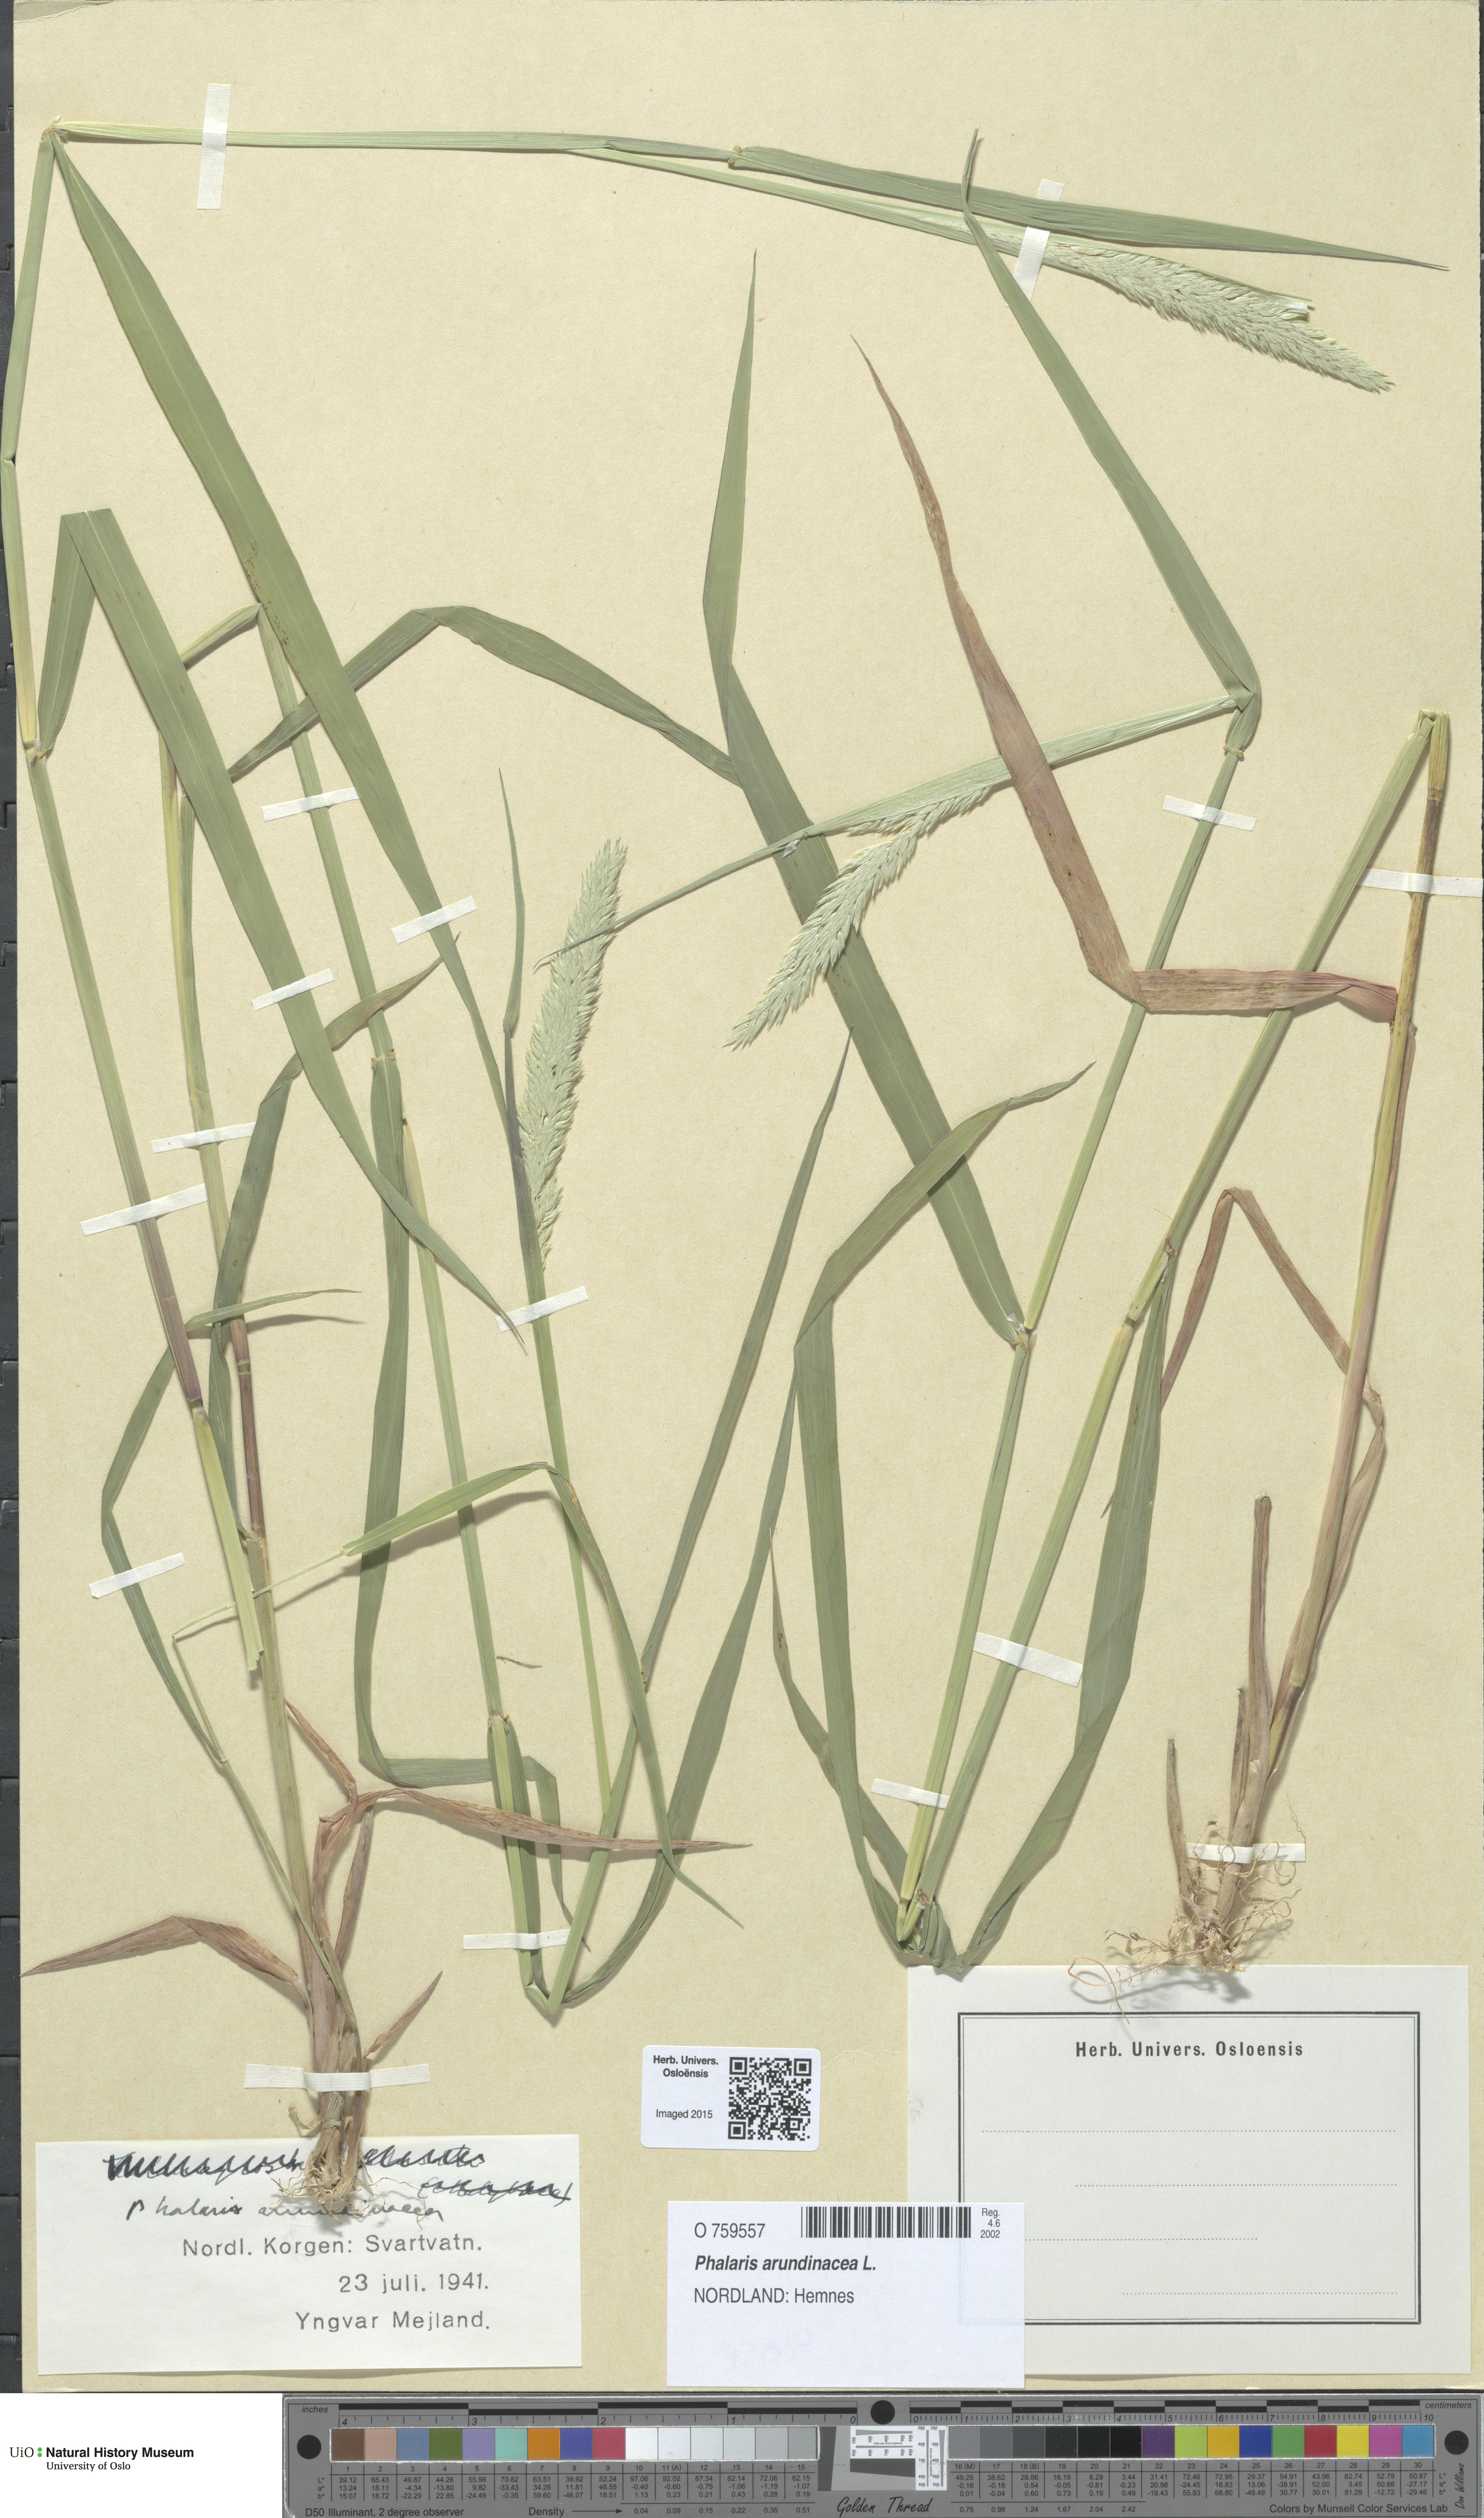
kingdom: Plantae
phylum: Tracheophyta
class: Liliopsida
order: Poales
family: Poaceae
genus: Phalaris
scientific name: Phalaris arundinacea
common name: Reed canary-grass
